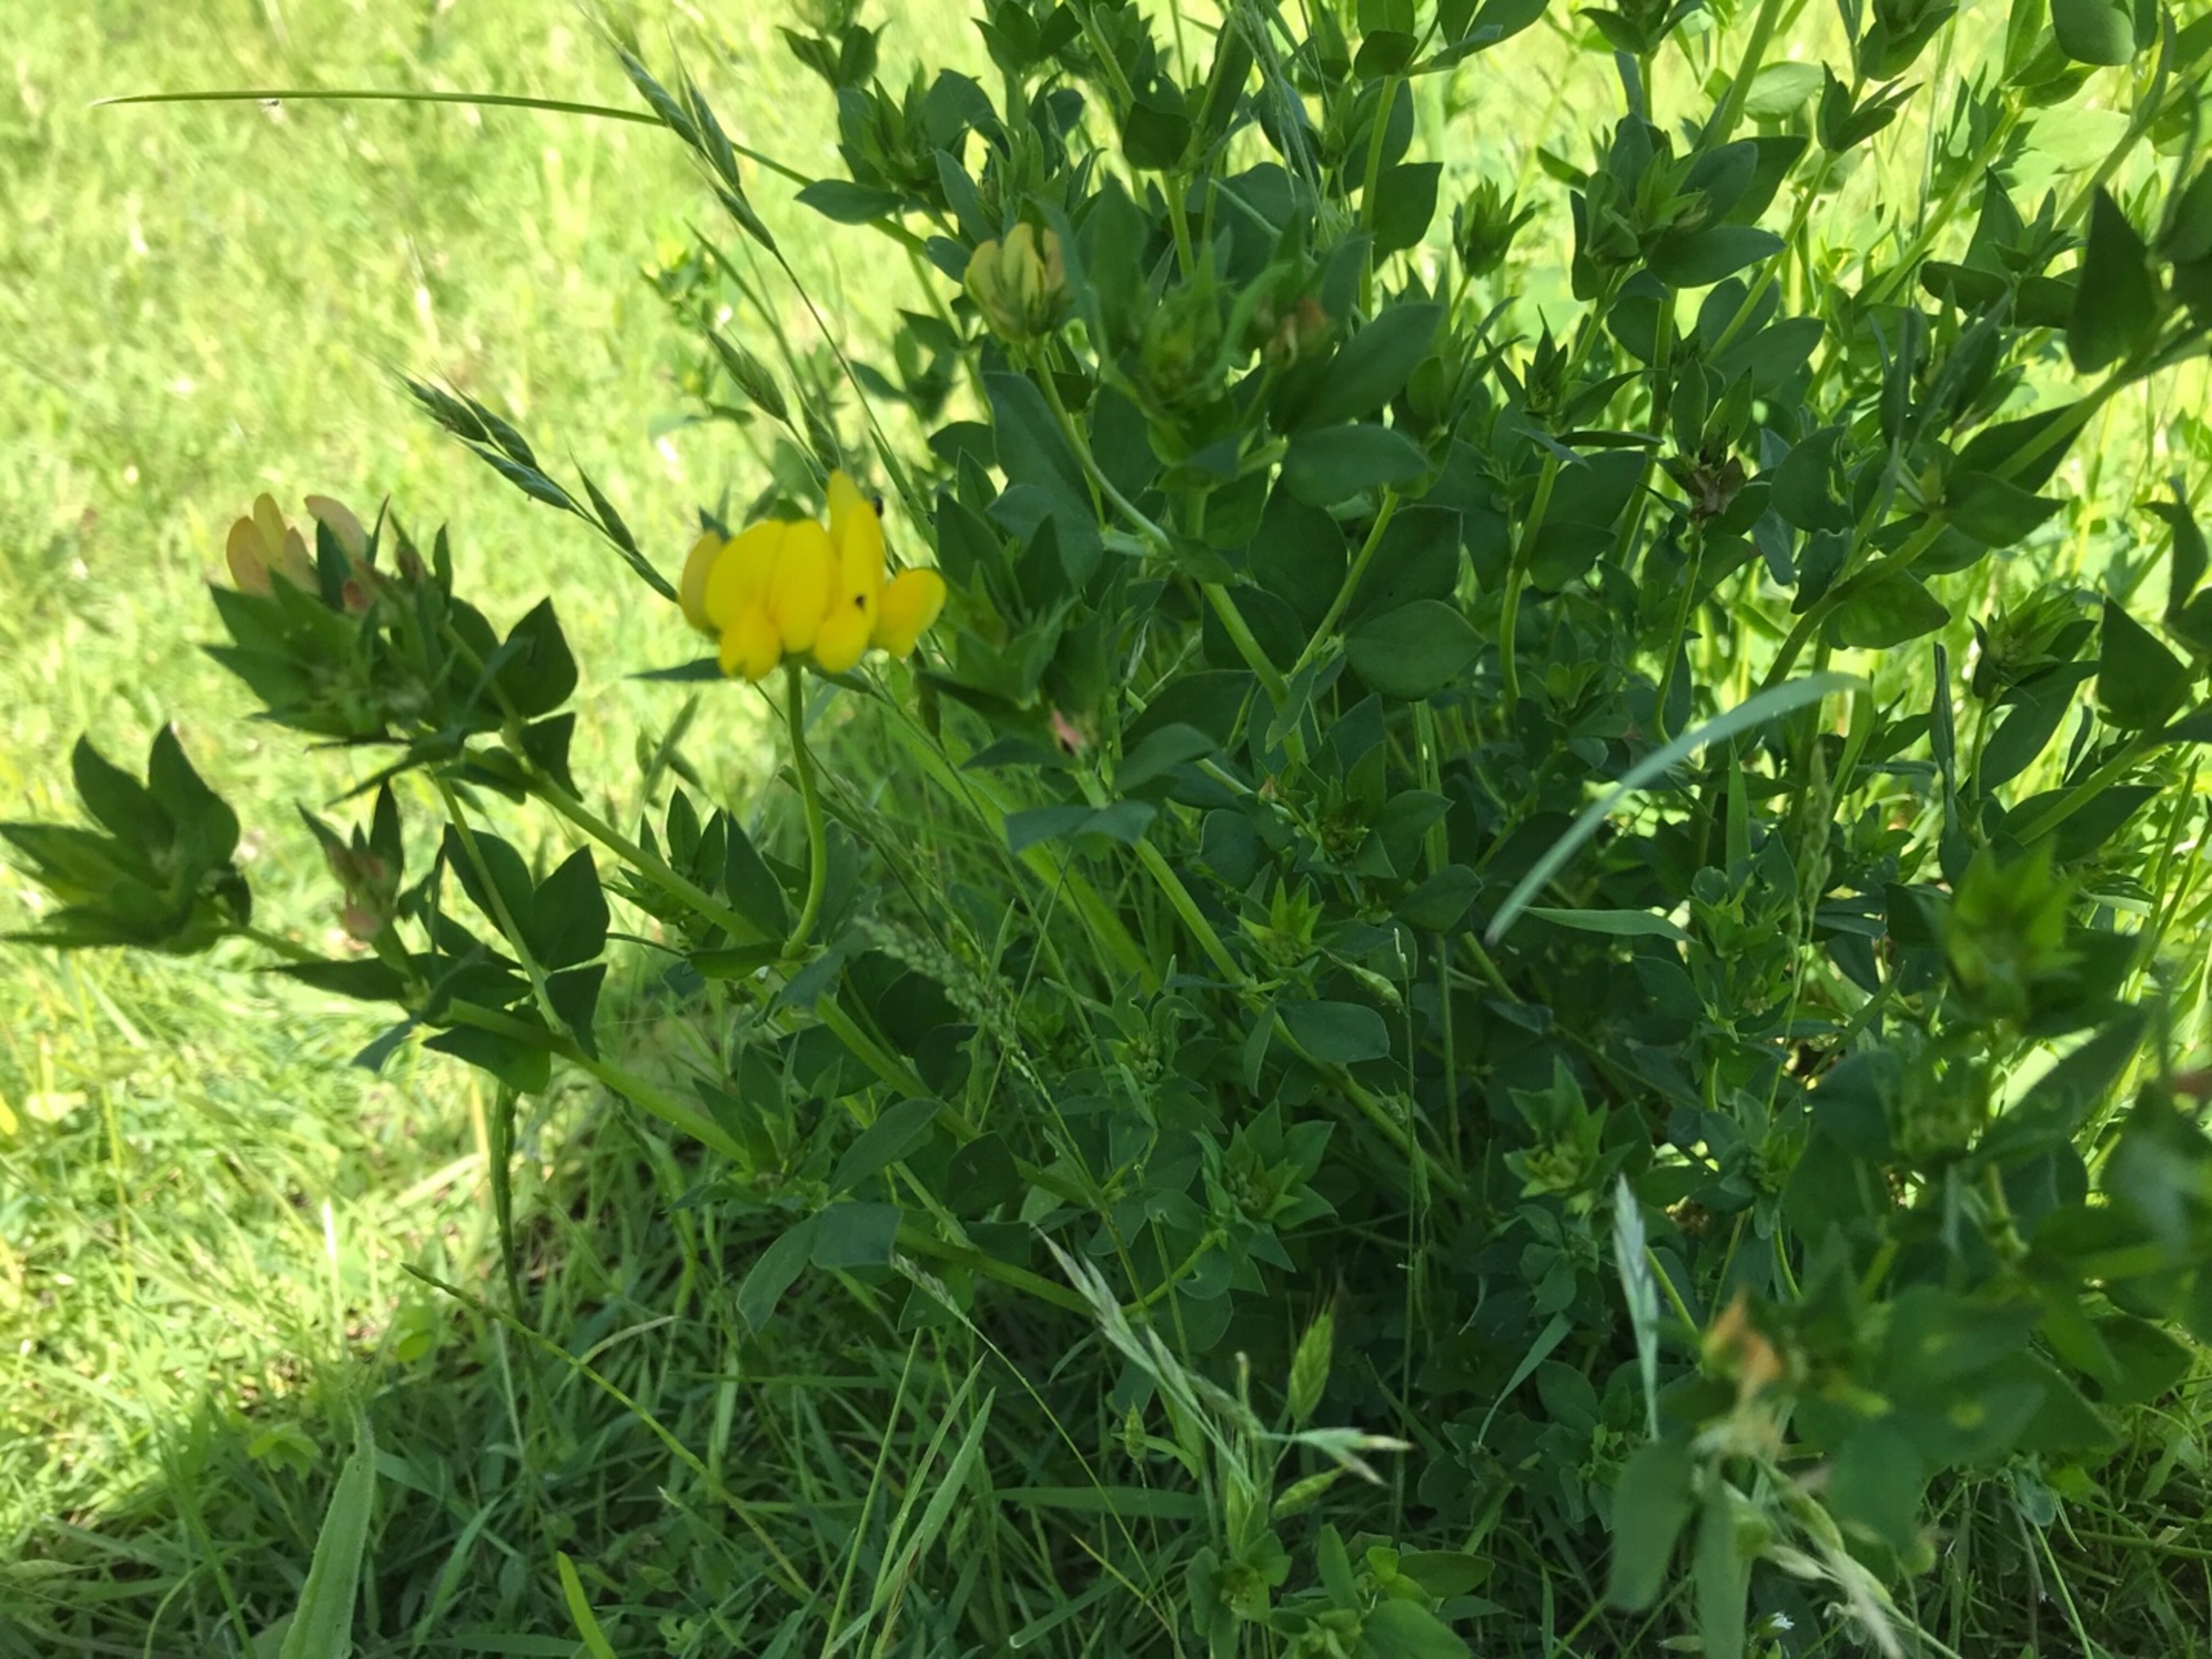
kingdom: Plantae
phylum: Tracheophyta
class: Magnoliopsida
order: Fabales
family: Fabaceae
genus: Lotus
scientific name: Lotus corniculatus
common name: Almindelig kællingetand
